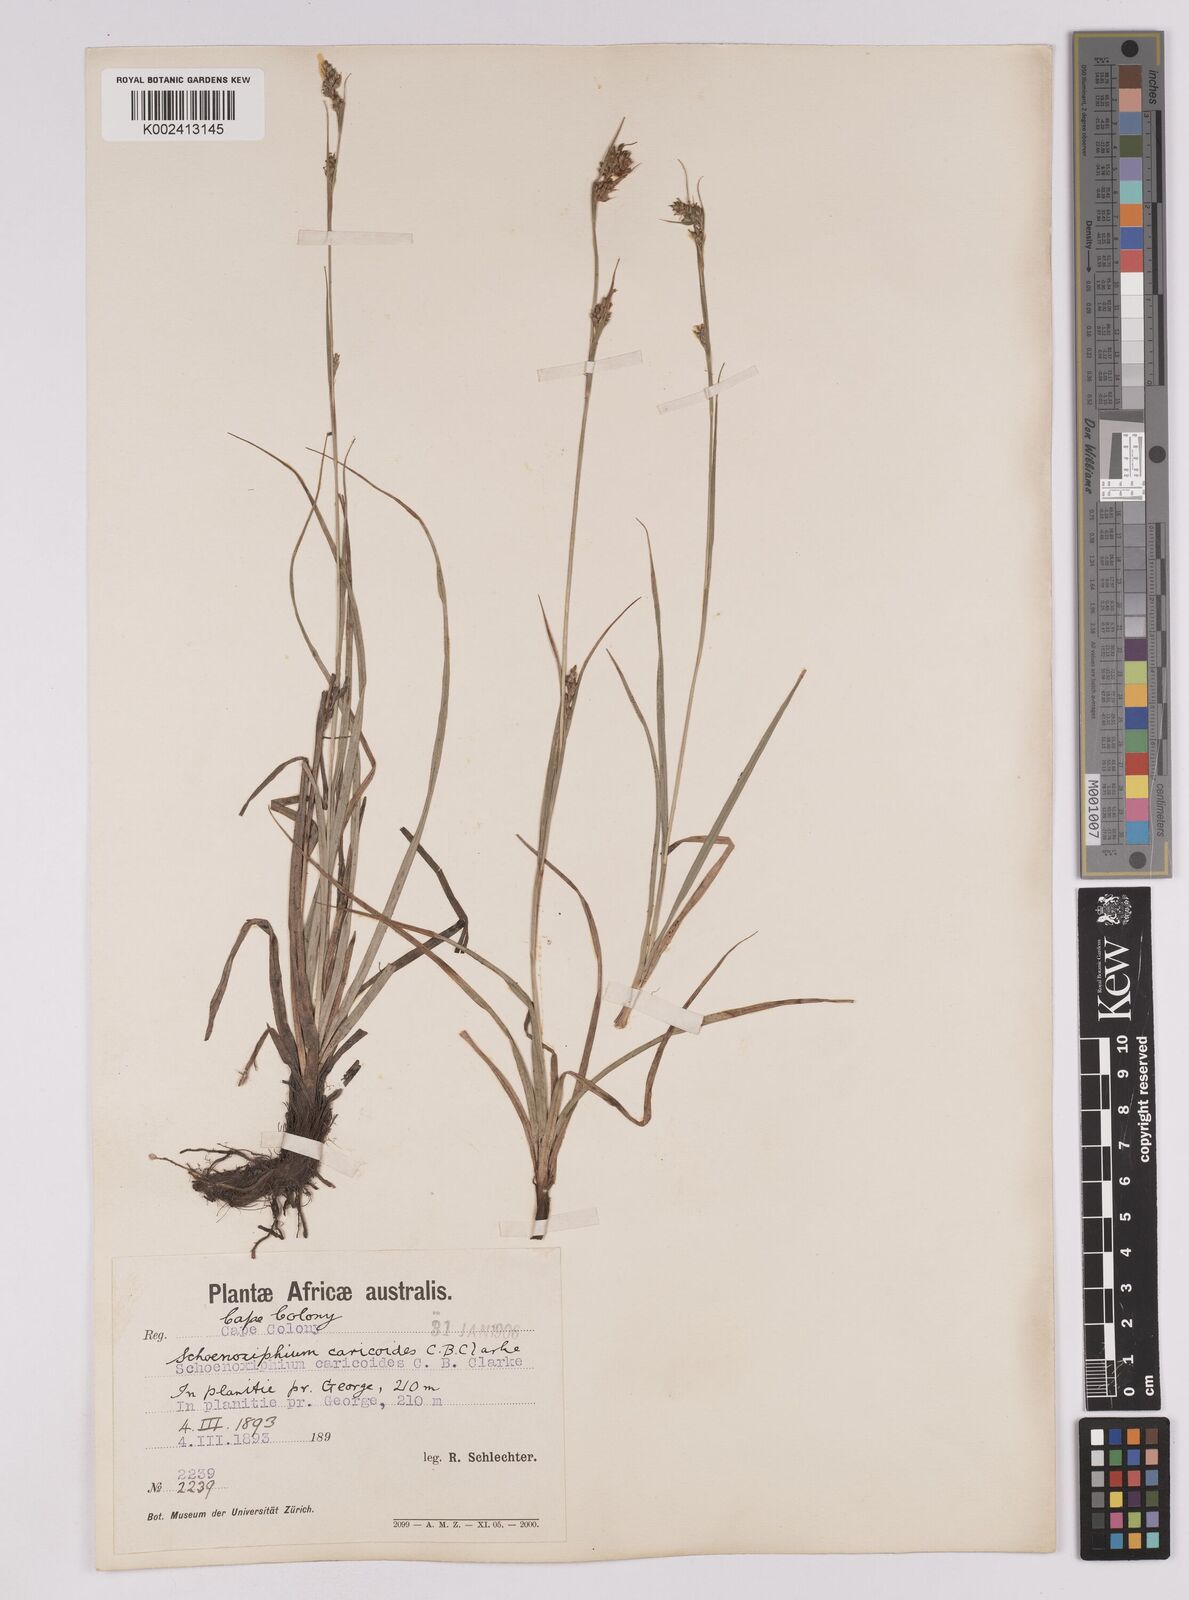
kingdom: Plantae
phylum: Tracheophyta
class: Liliopsida
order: Poales
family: Cyperaceae
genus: Carex
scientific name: Carex spartea
